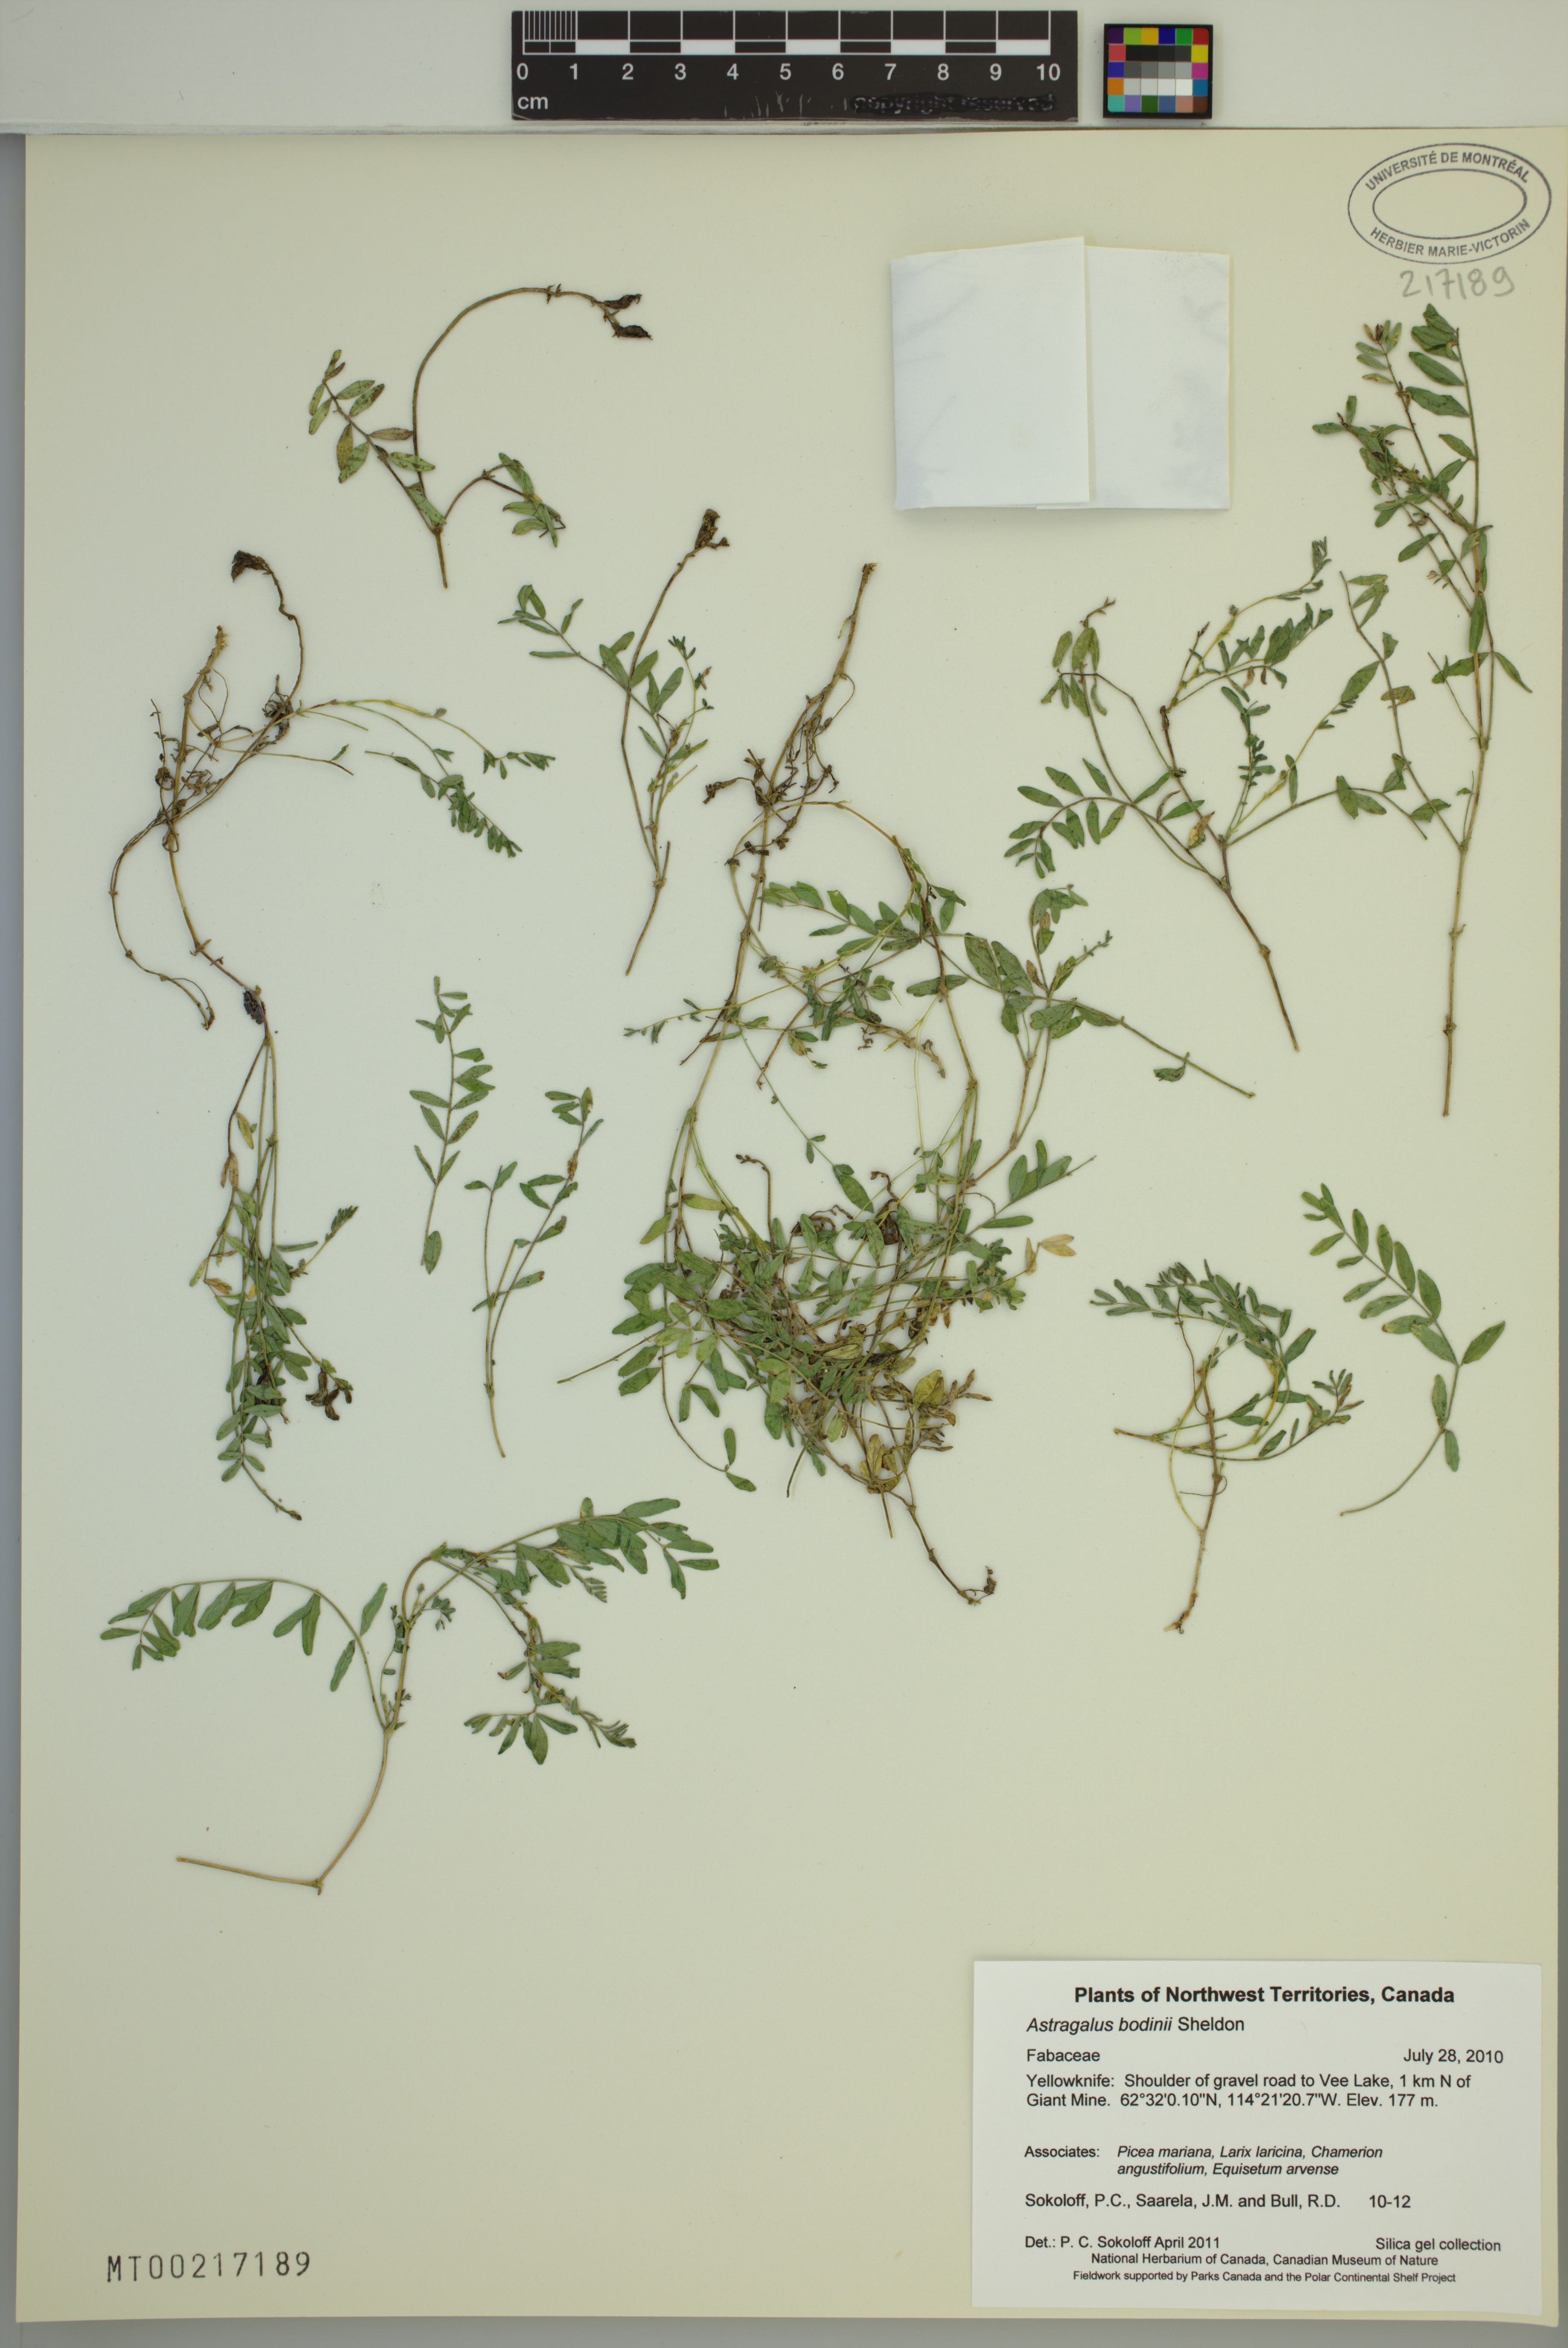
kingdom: Plantae
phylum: Tracheophyta
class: Magnoliopsida
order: Fabales
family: Fabaceae
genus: Astragalus
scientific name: Astragalus bodinii
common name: Bodin's milk-vetch
